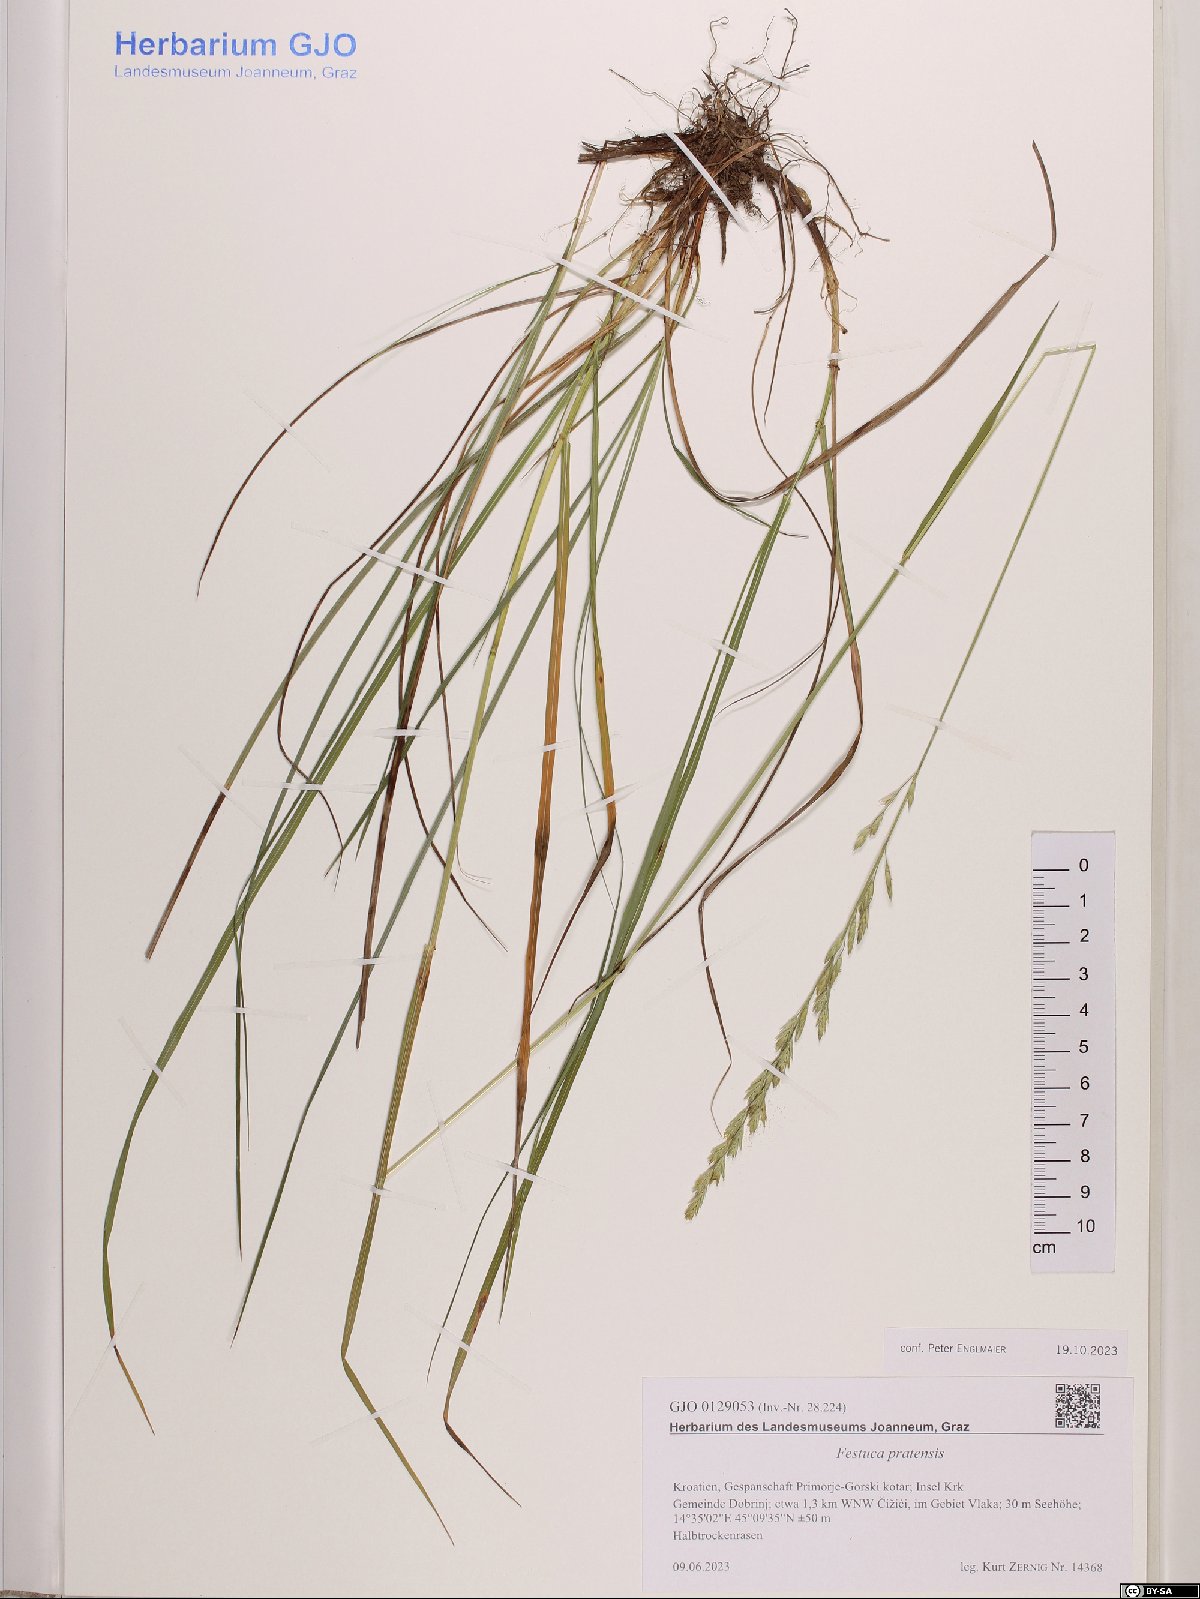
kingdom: Plantae
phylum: Tracheophyta
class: Liliopsida
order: Poales
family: Poaceae
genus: Lolium
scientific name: Lolium pratense
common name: Dover grass
